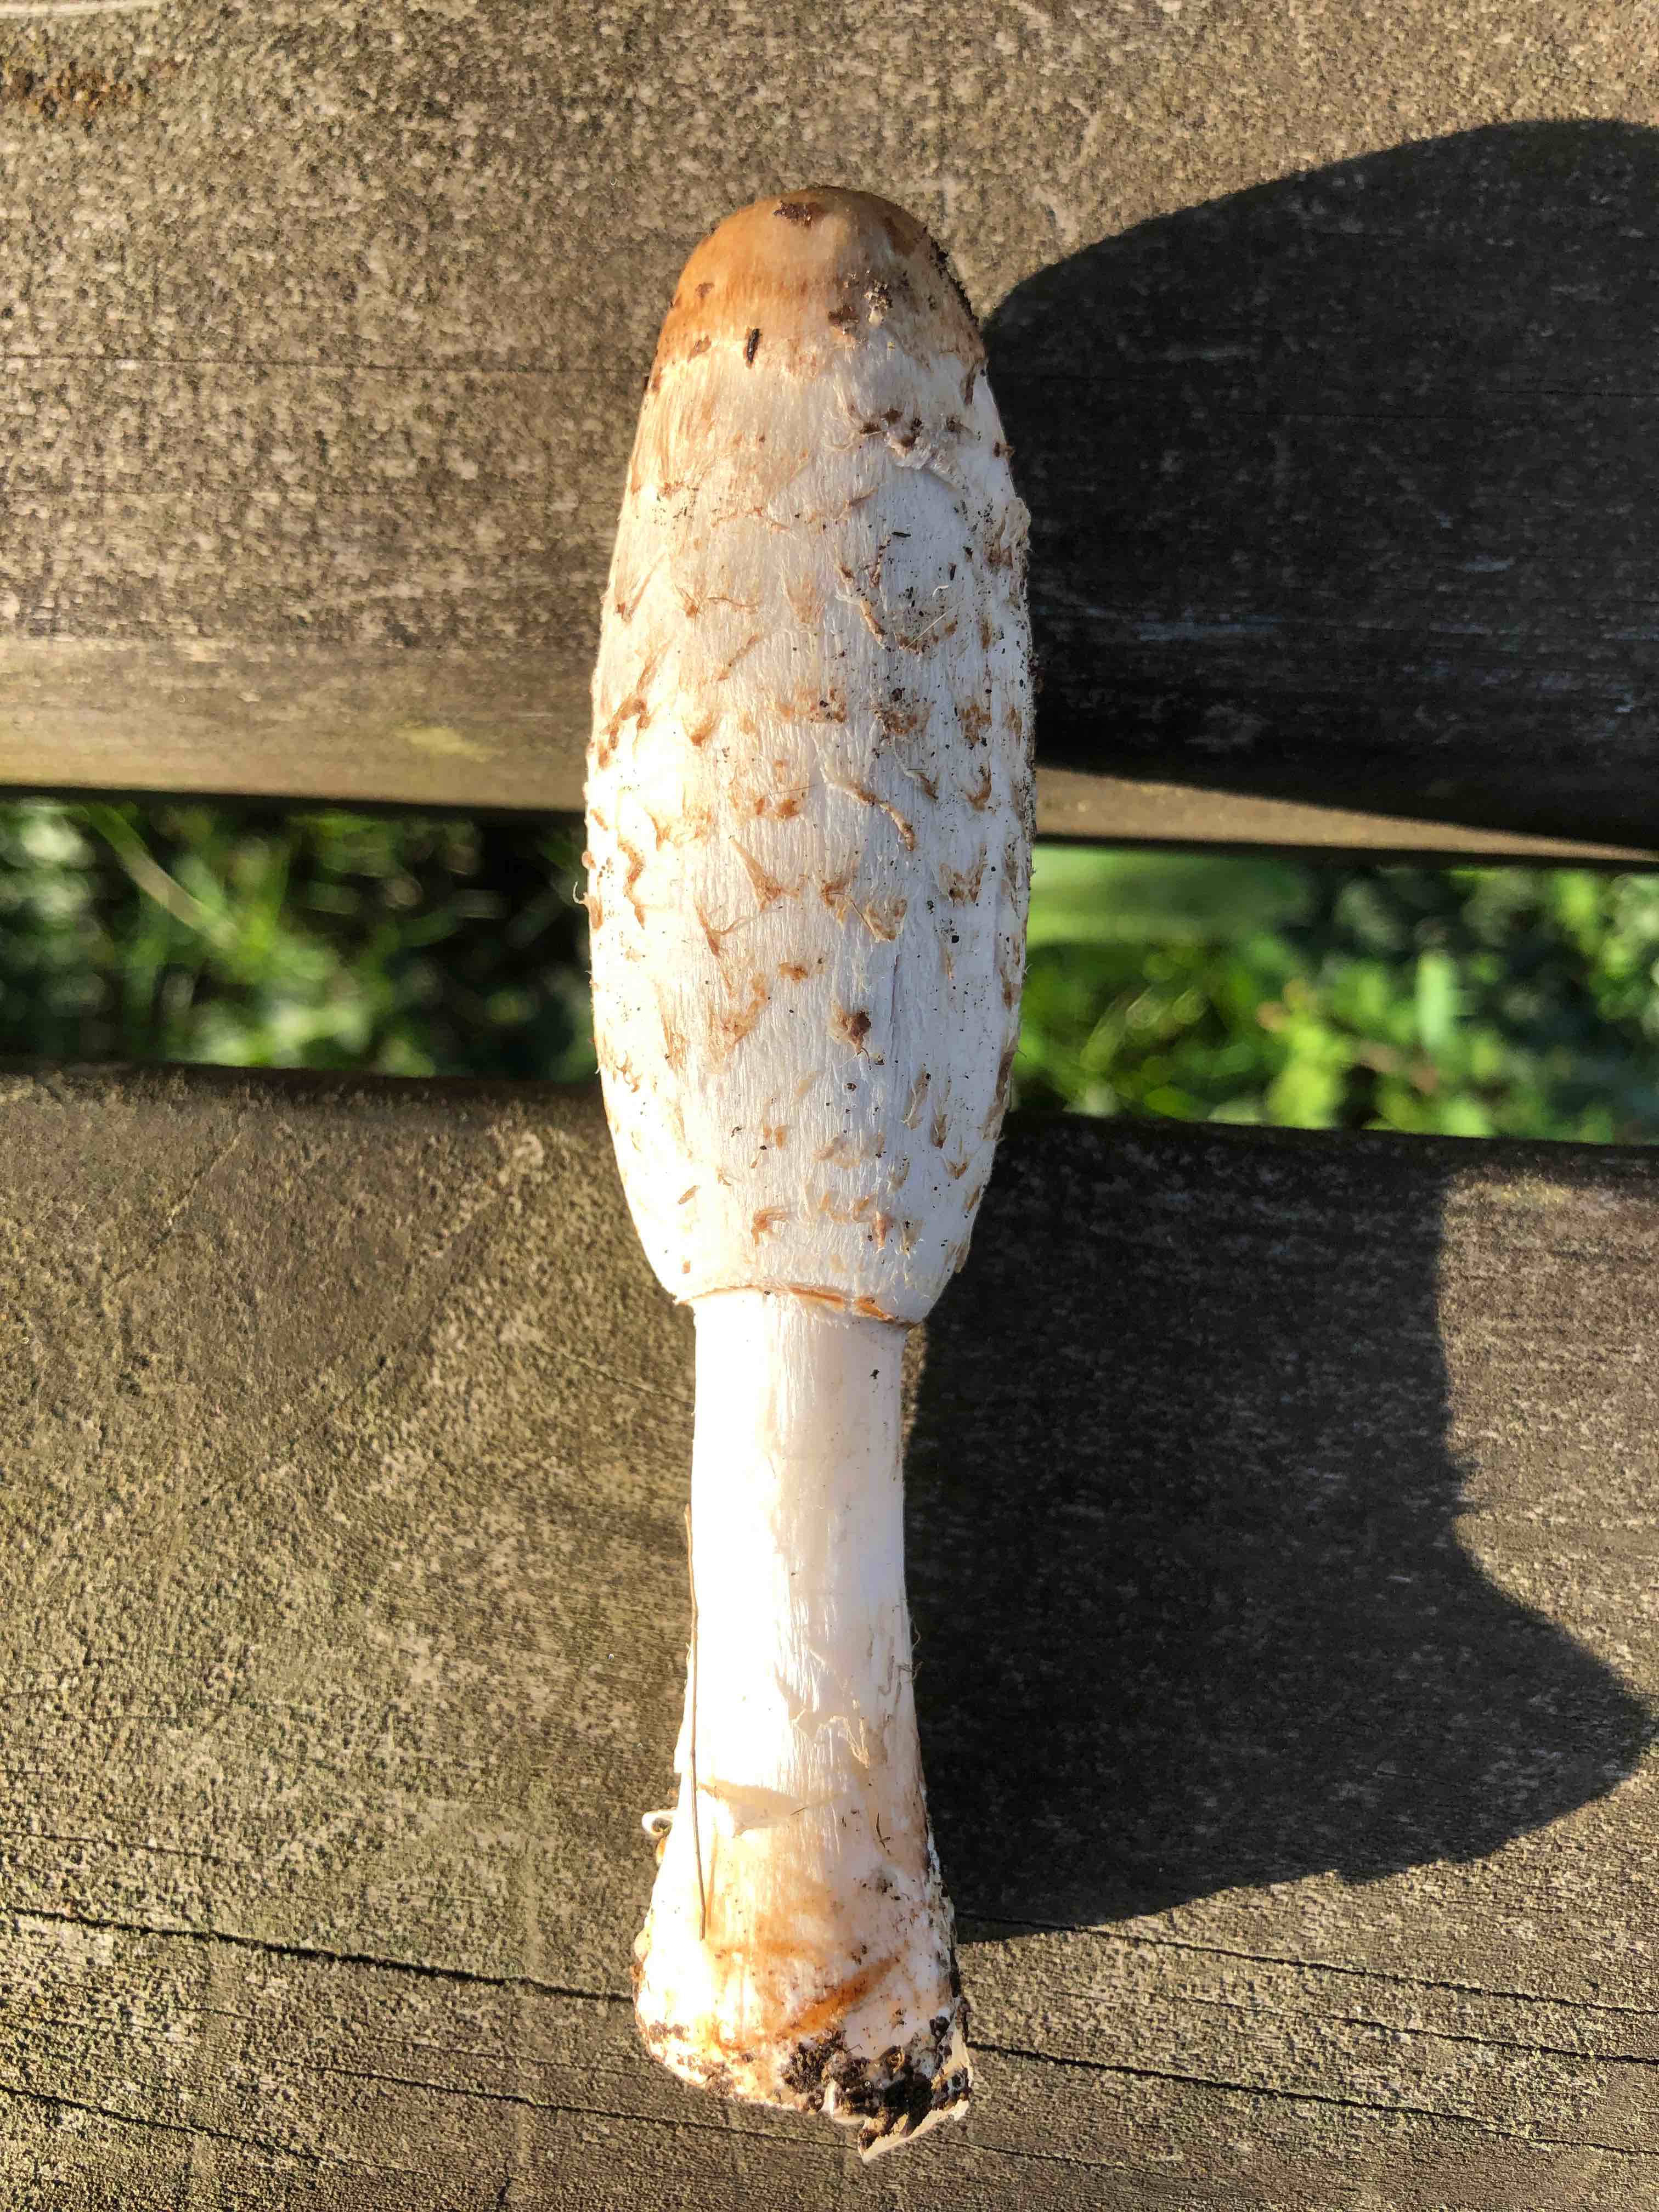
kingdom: Fungi
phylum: Basidiomycota
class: Agaricomycetes
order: Agaricales
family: Agaricaceae
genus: Coprinus
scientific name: Coprinus comatus
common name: stor parykhat
